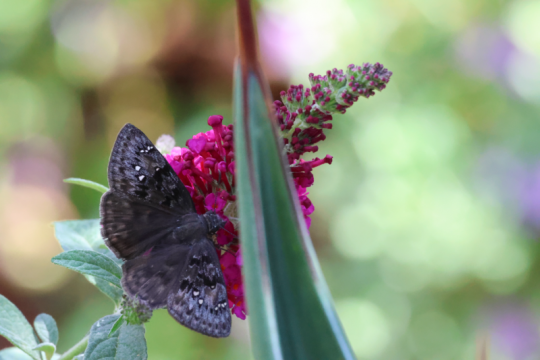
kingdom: Animalia
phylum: Arthropoda
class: Insecta
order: Lepidoptera
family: Hesperiidae
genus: Erynnis
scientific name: Erynnis tristis
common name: Mournful Duskywing
